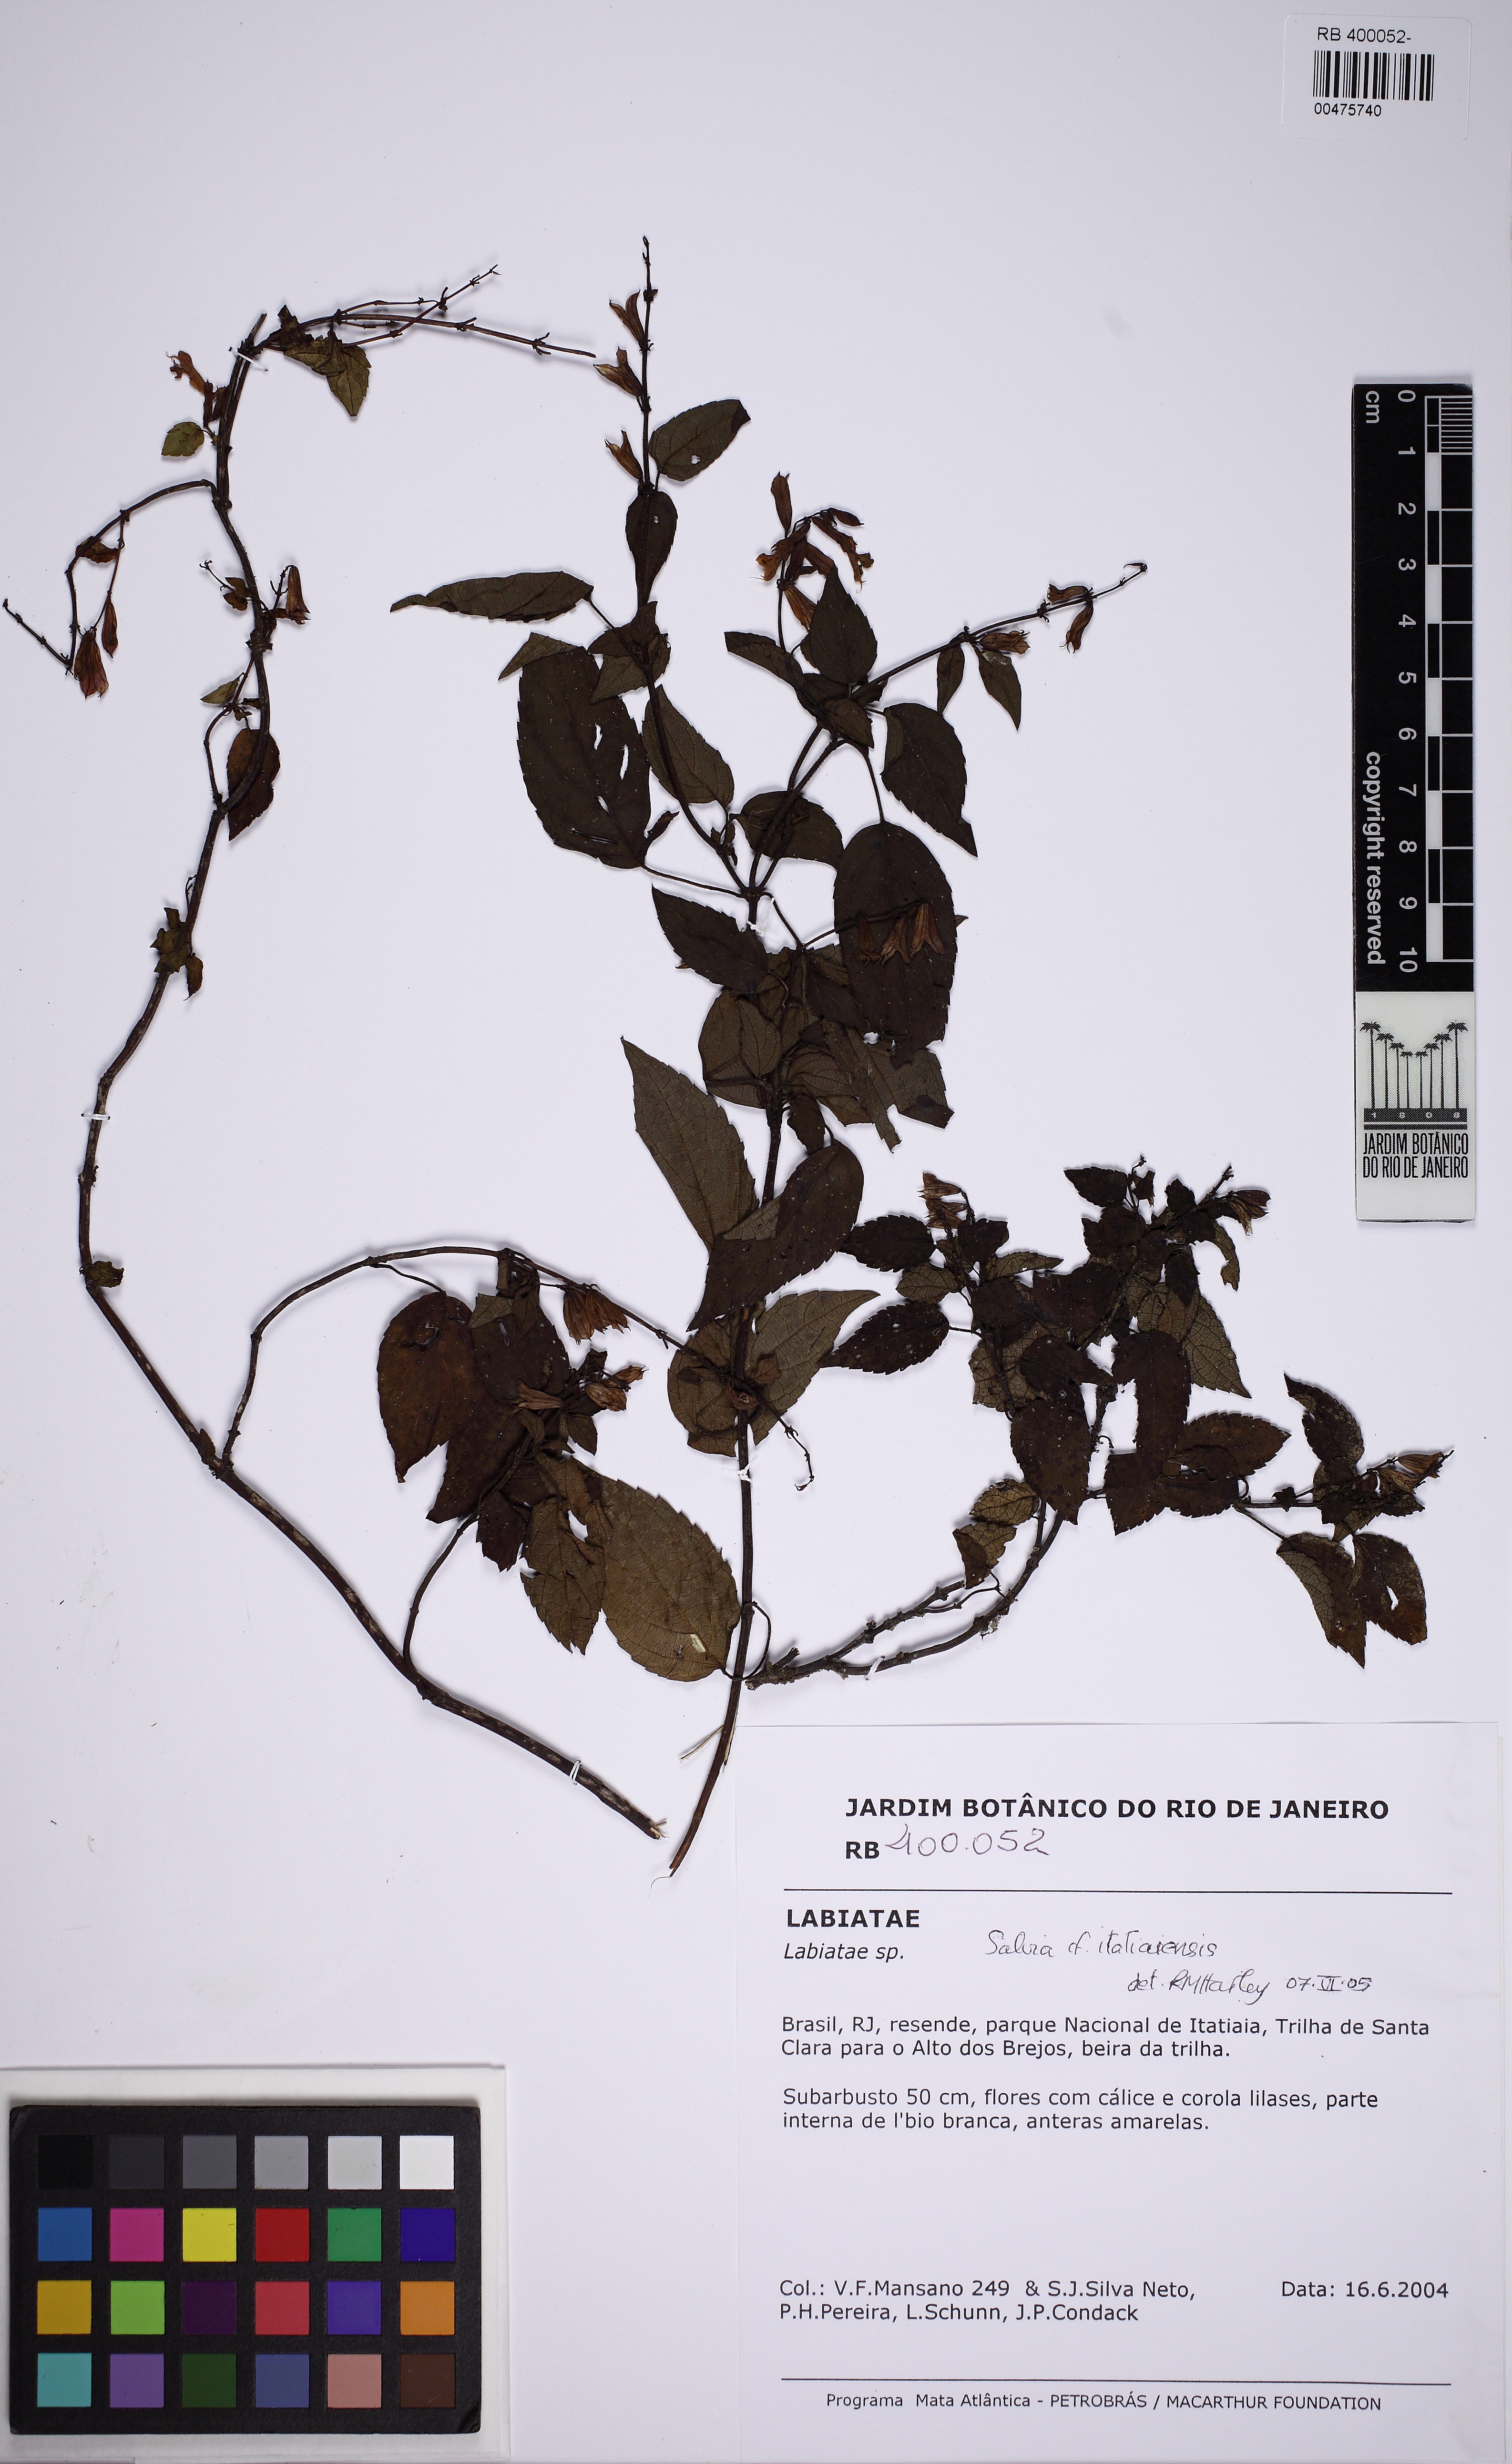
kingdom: Plantae
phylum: Tracheophyta
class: Magnoliopsida
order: Lamiales
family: Lamiaceae
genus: Salvia
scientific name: Salvia itatiaiensis
